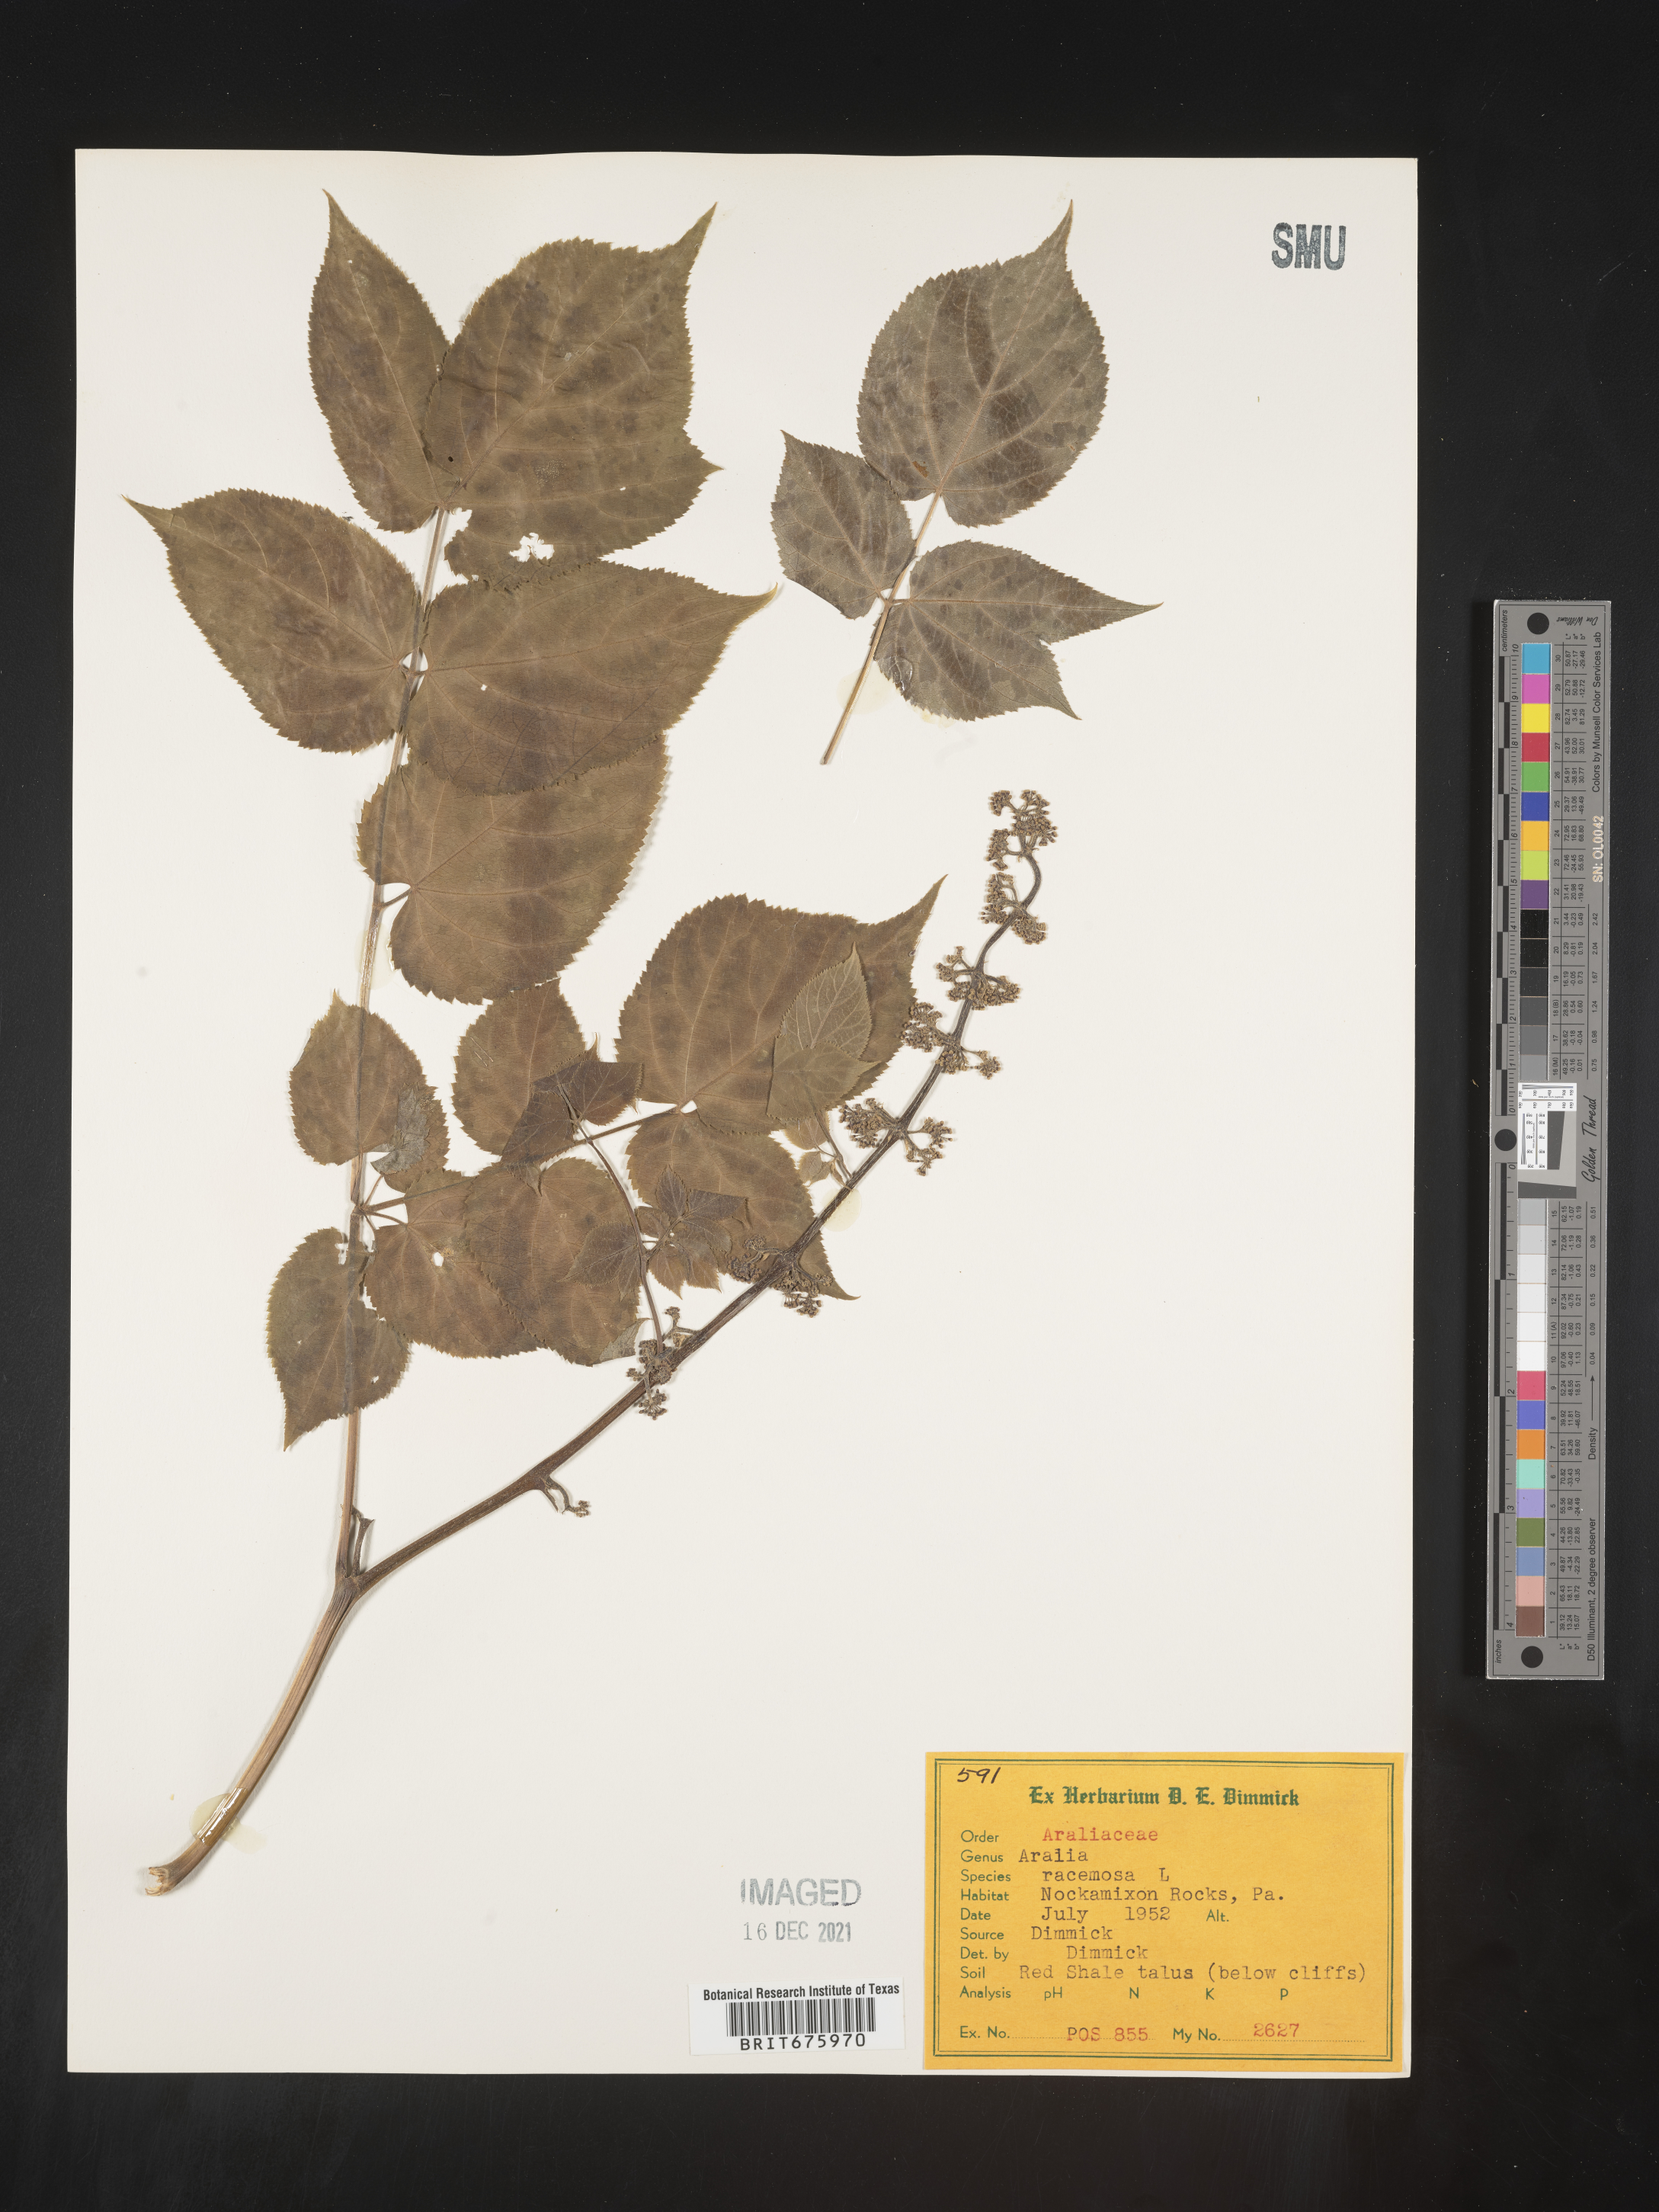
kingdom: Plantae
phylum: Tracheophyta
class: Magnoliopsida
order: Apiales
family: Araliaceae
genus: Aralia
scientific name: Aralia racemosa
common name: American-spikenard
